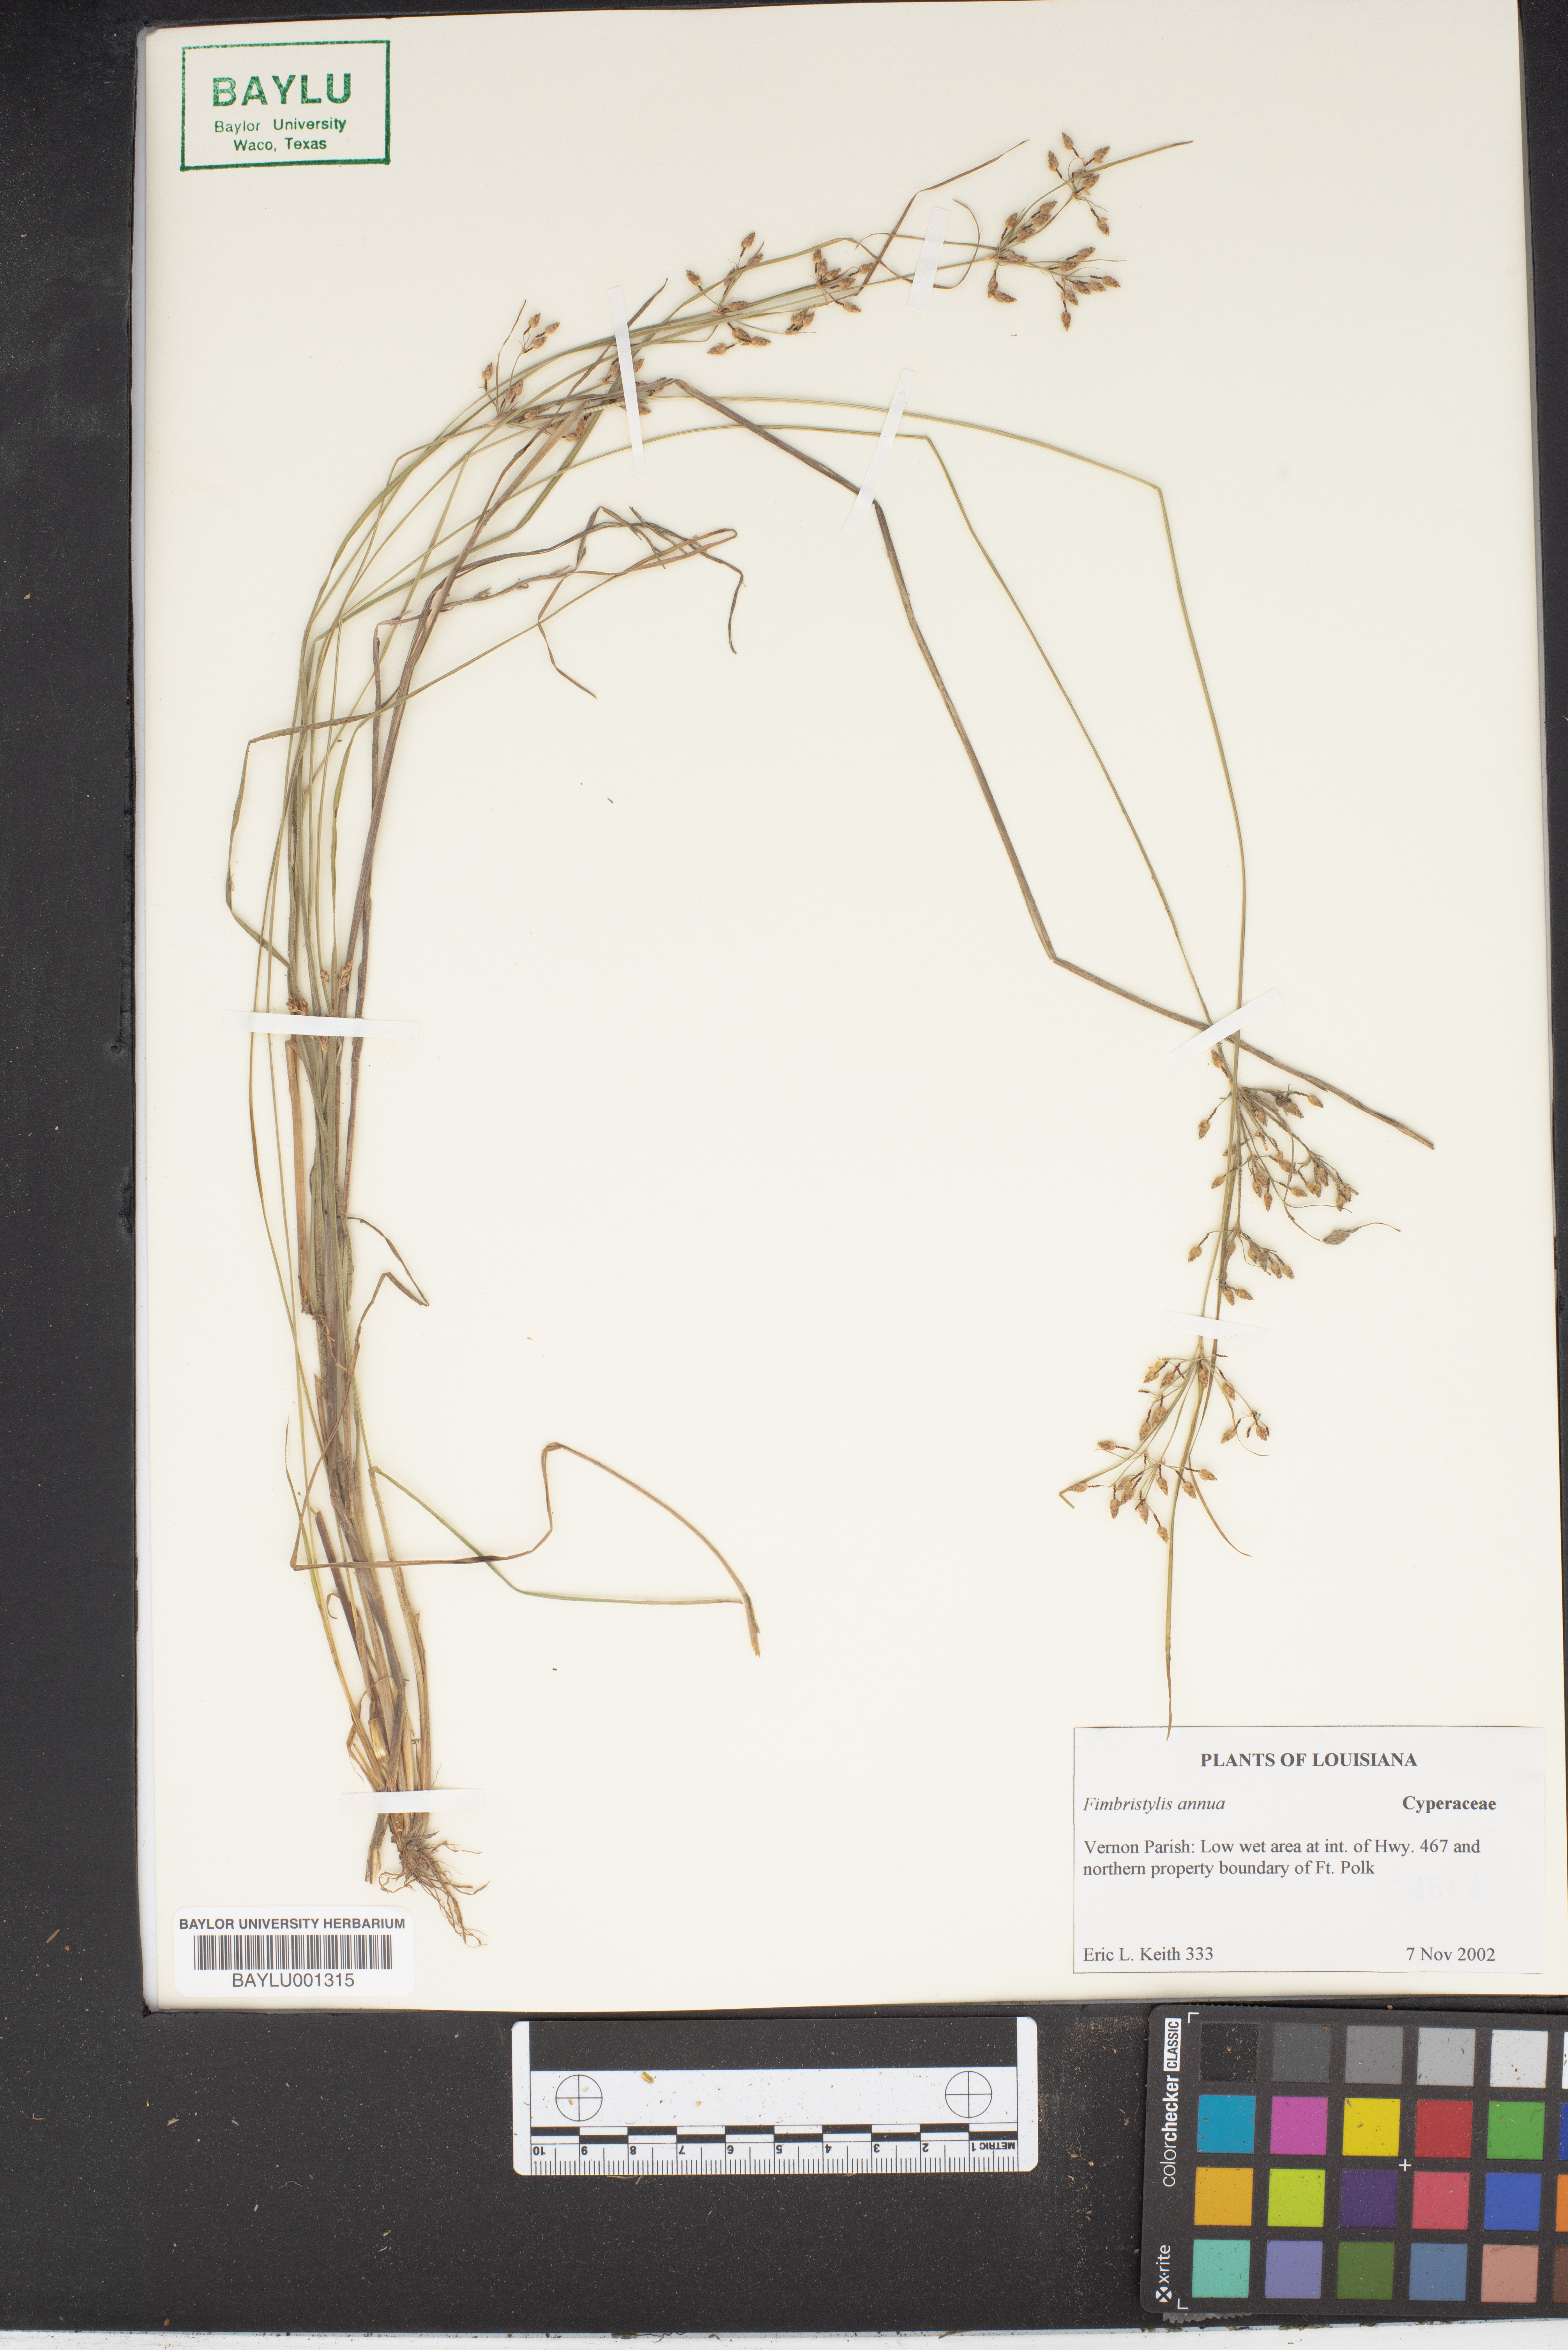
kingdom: Plantae
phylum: Tracheophyta
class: Liliopsida
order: Poales
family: Cyperaceae
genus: Fimbristylis
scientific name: Fimbristylis dichotoma
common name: Forked fimbry
